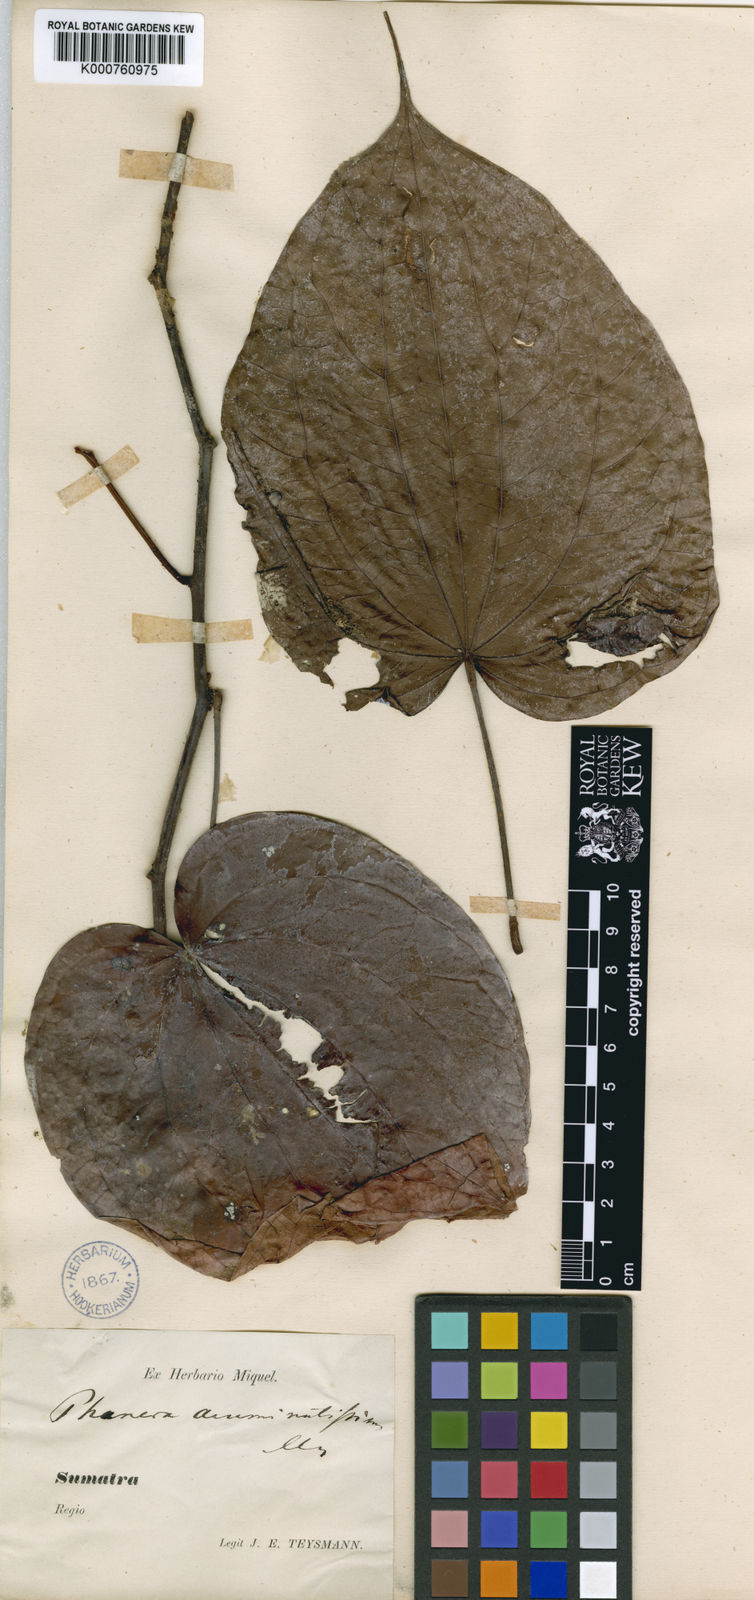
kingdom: Plantae
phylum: Tracheophyta
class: Magnoliopsida
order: Fabales
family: Fabaceae
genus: Phanera
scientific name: Phanera
